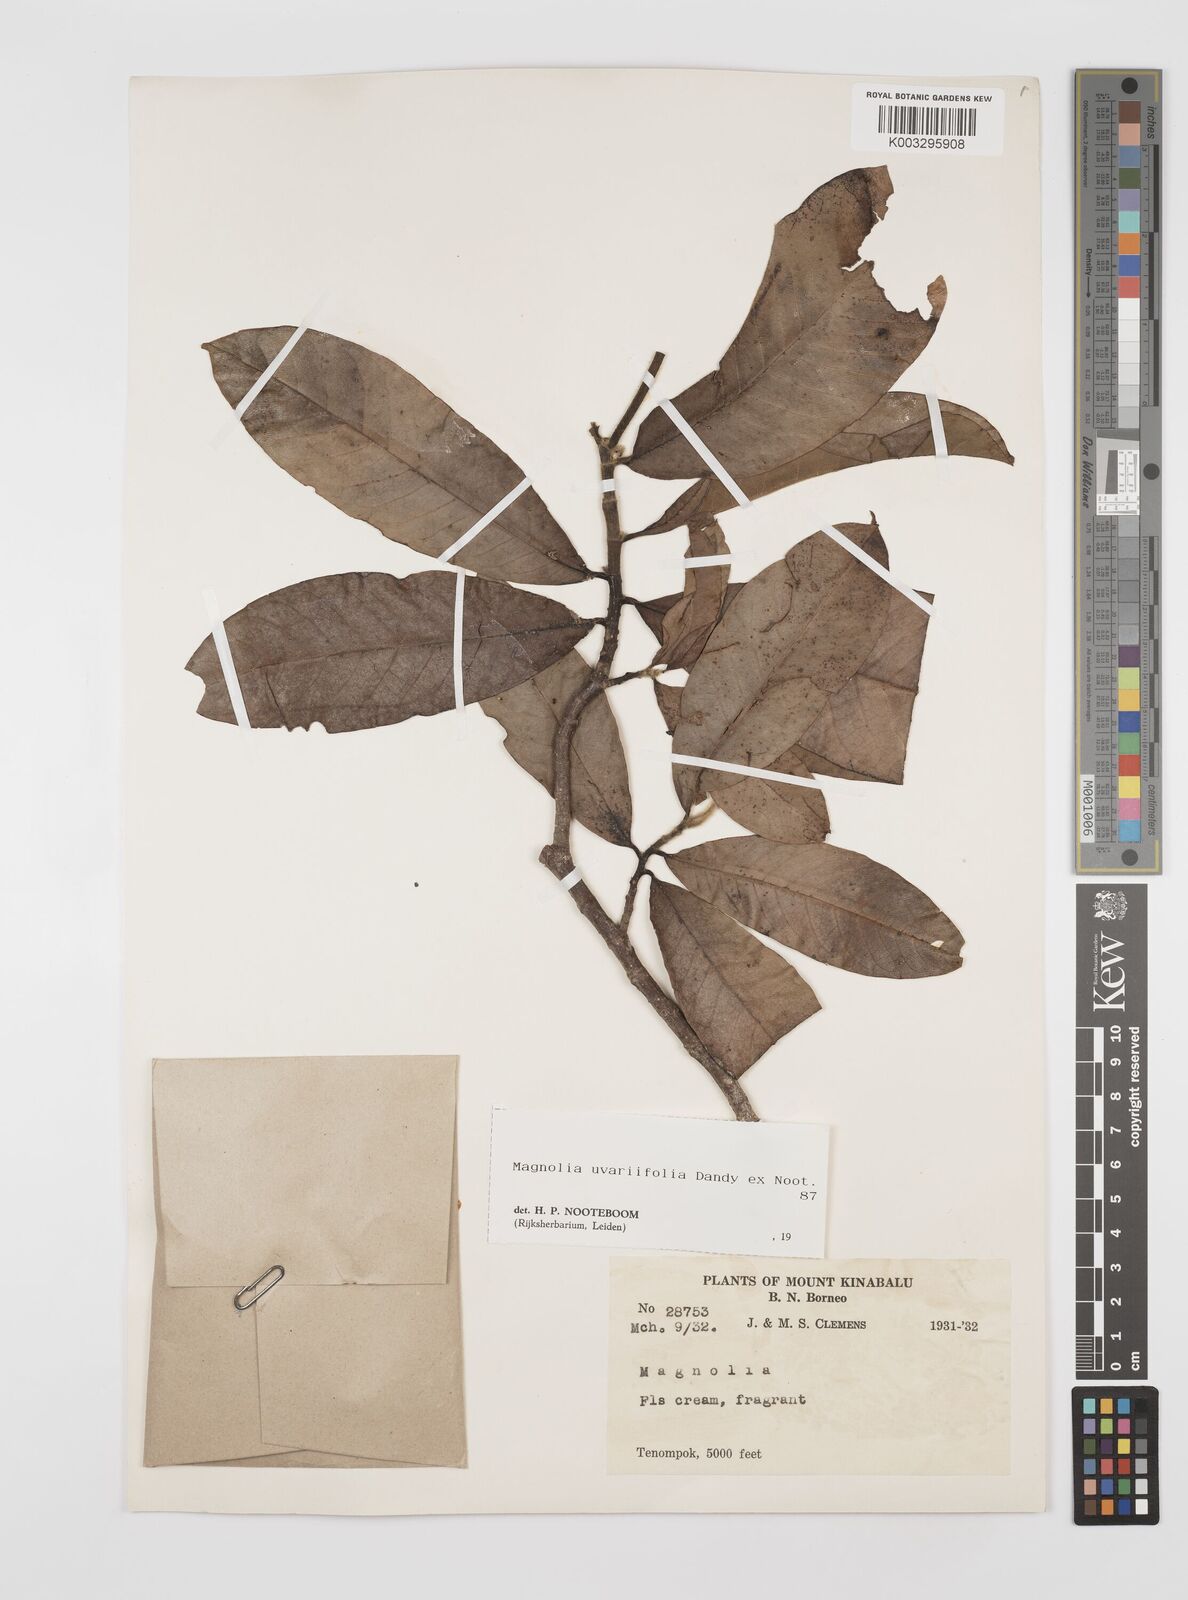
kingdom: Plantae
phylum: Tracheophyta
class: Magnoliopsida
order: Magnoliales
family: Magnoliaceae
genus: Magnolia
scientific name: Magnolia macklottii
